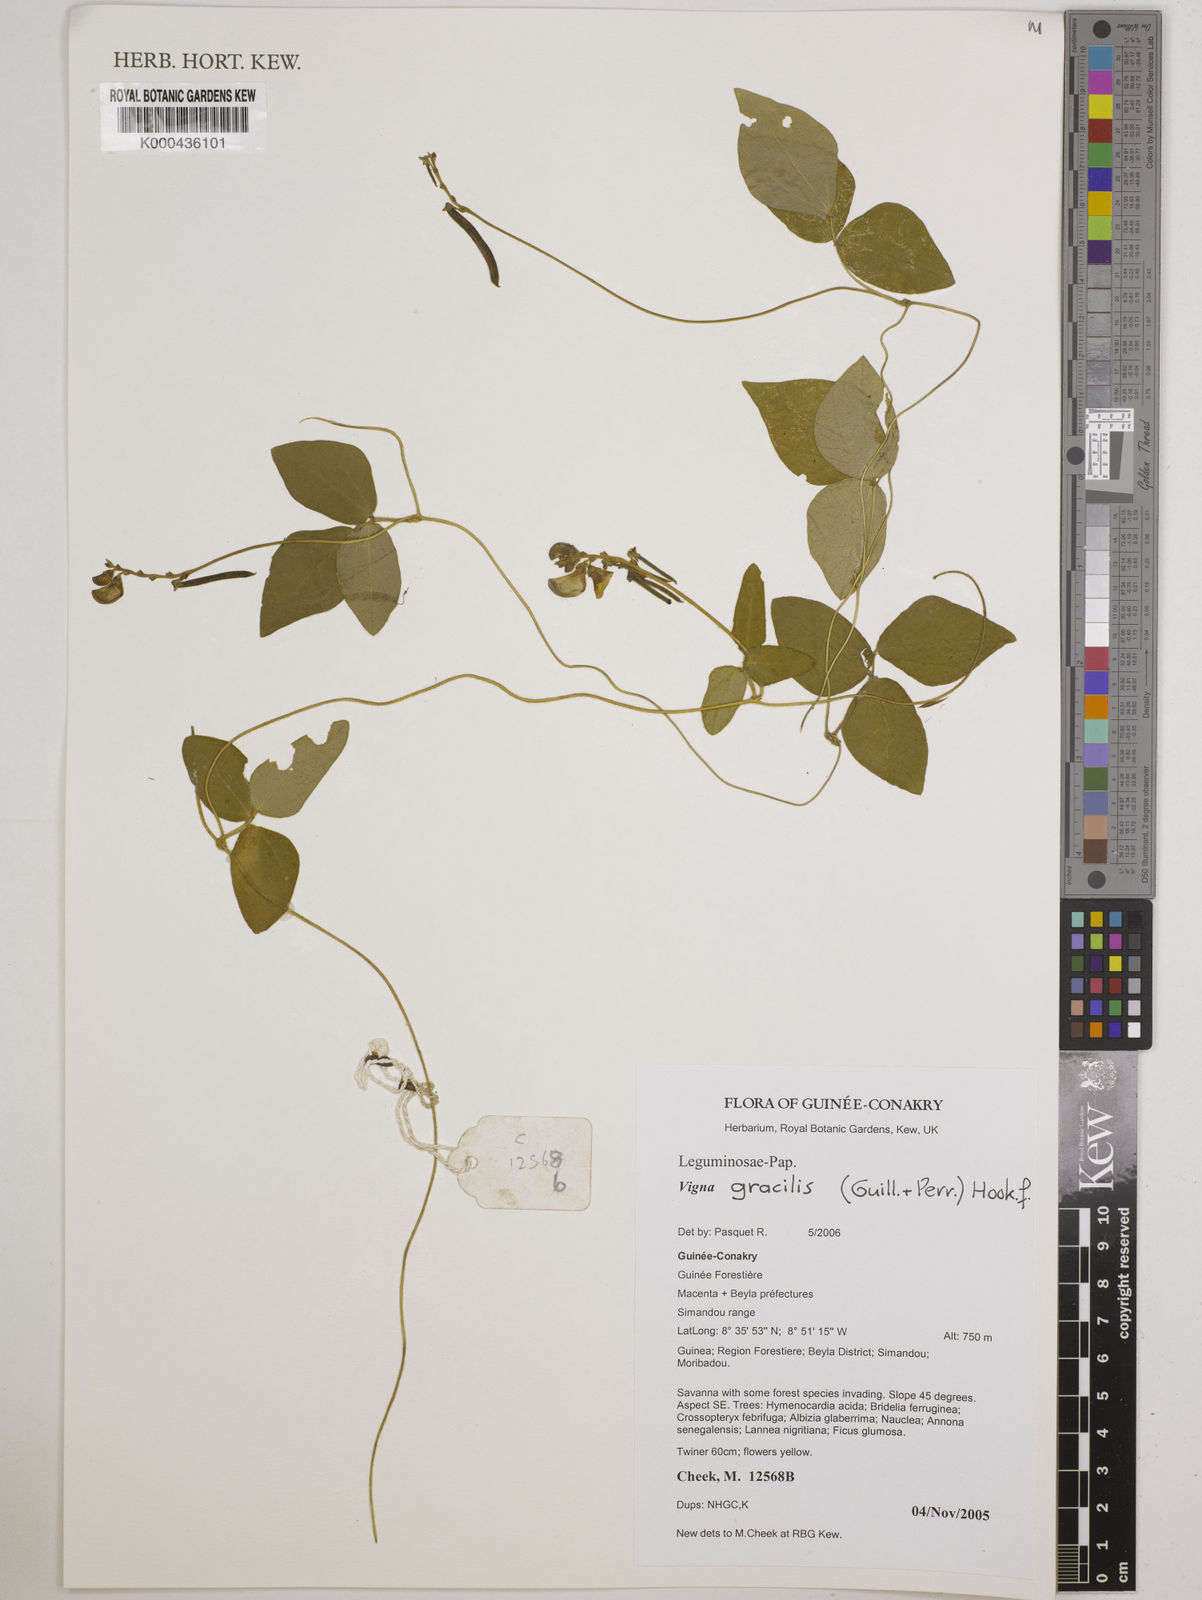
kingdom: Plantae
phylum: Tracheophyta
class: Magnoliopsida
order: Fabales
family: Fabaceae
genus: Vigna
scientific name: Vigna gracilis
